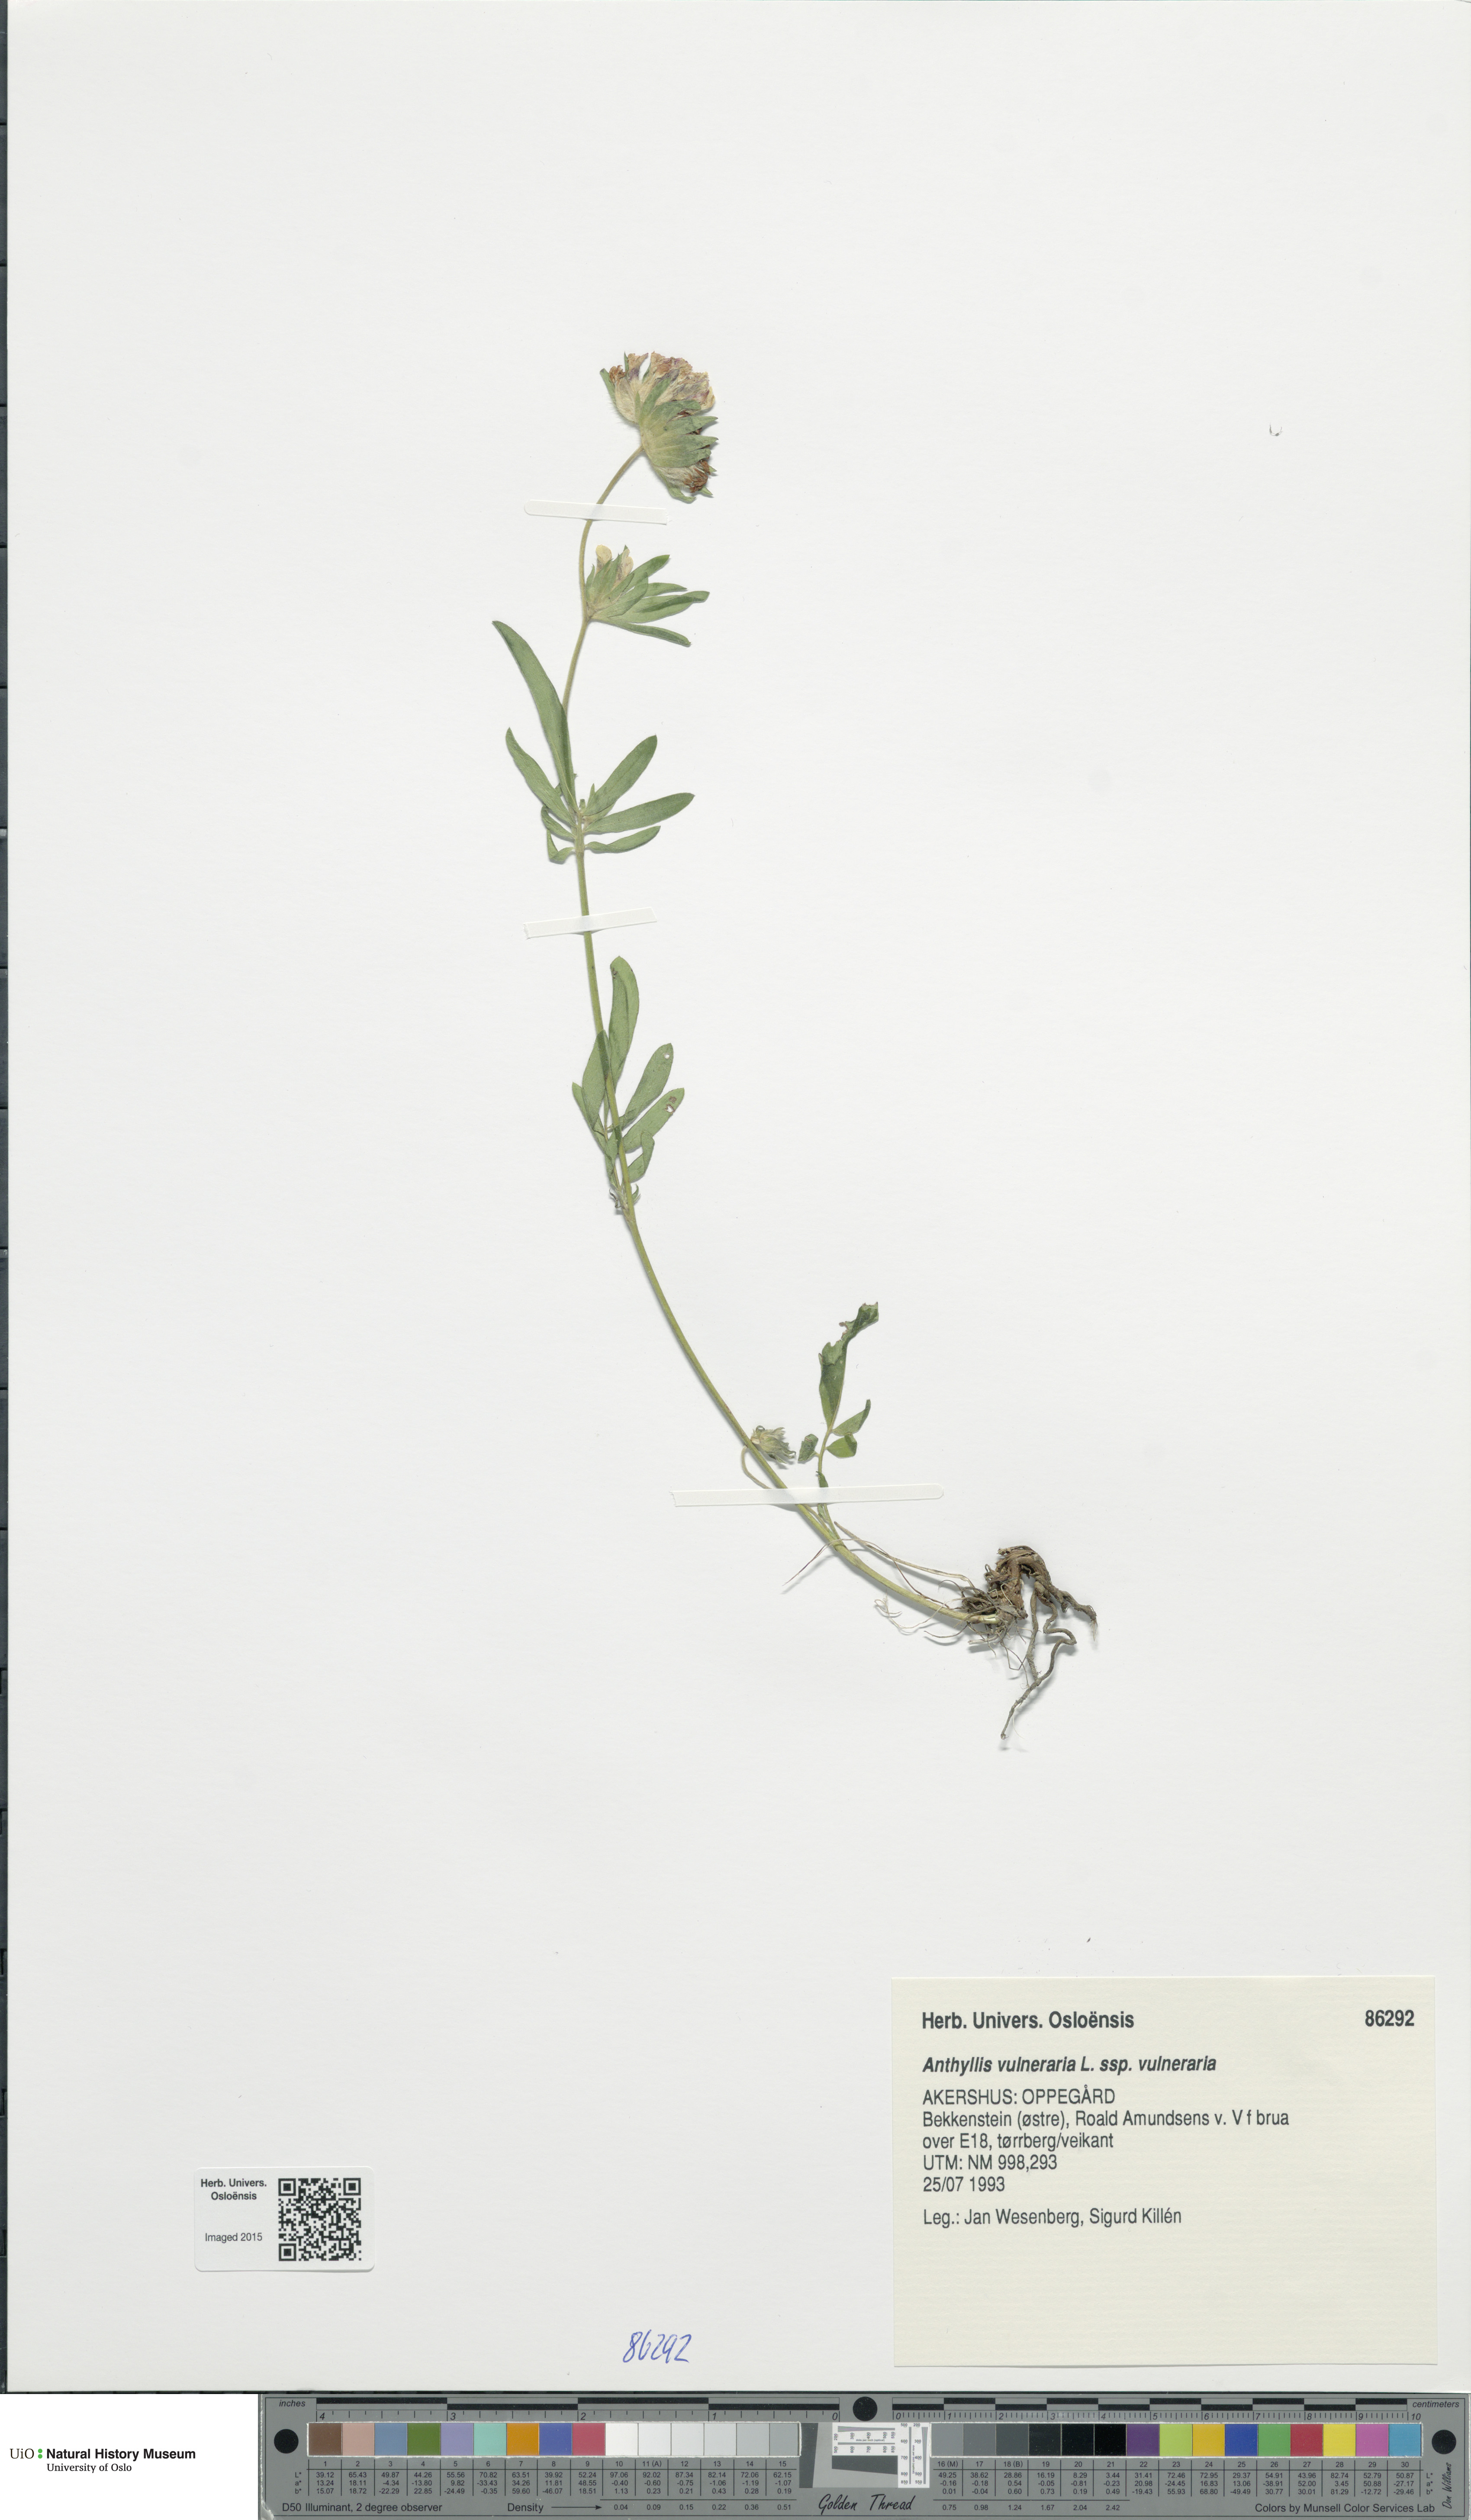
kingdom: Plantae
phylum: Tracheophyta
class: Magnoliopsida
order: Fabales
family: Fabaceae
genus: Anthyllis
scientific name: Anthyllis vulneraria
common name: Kidney vetch
